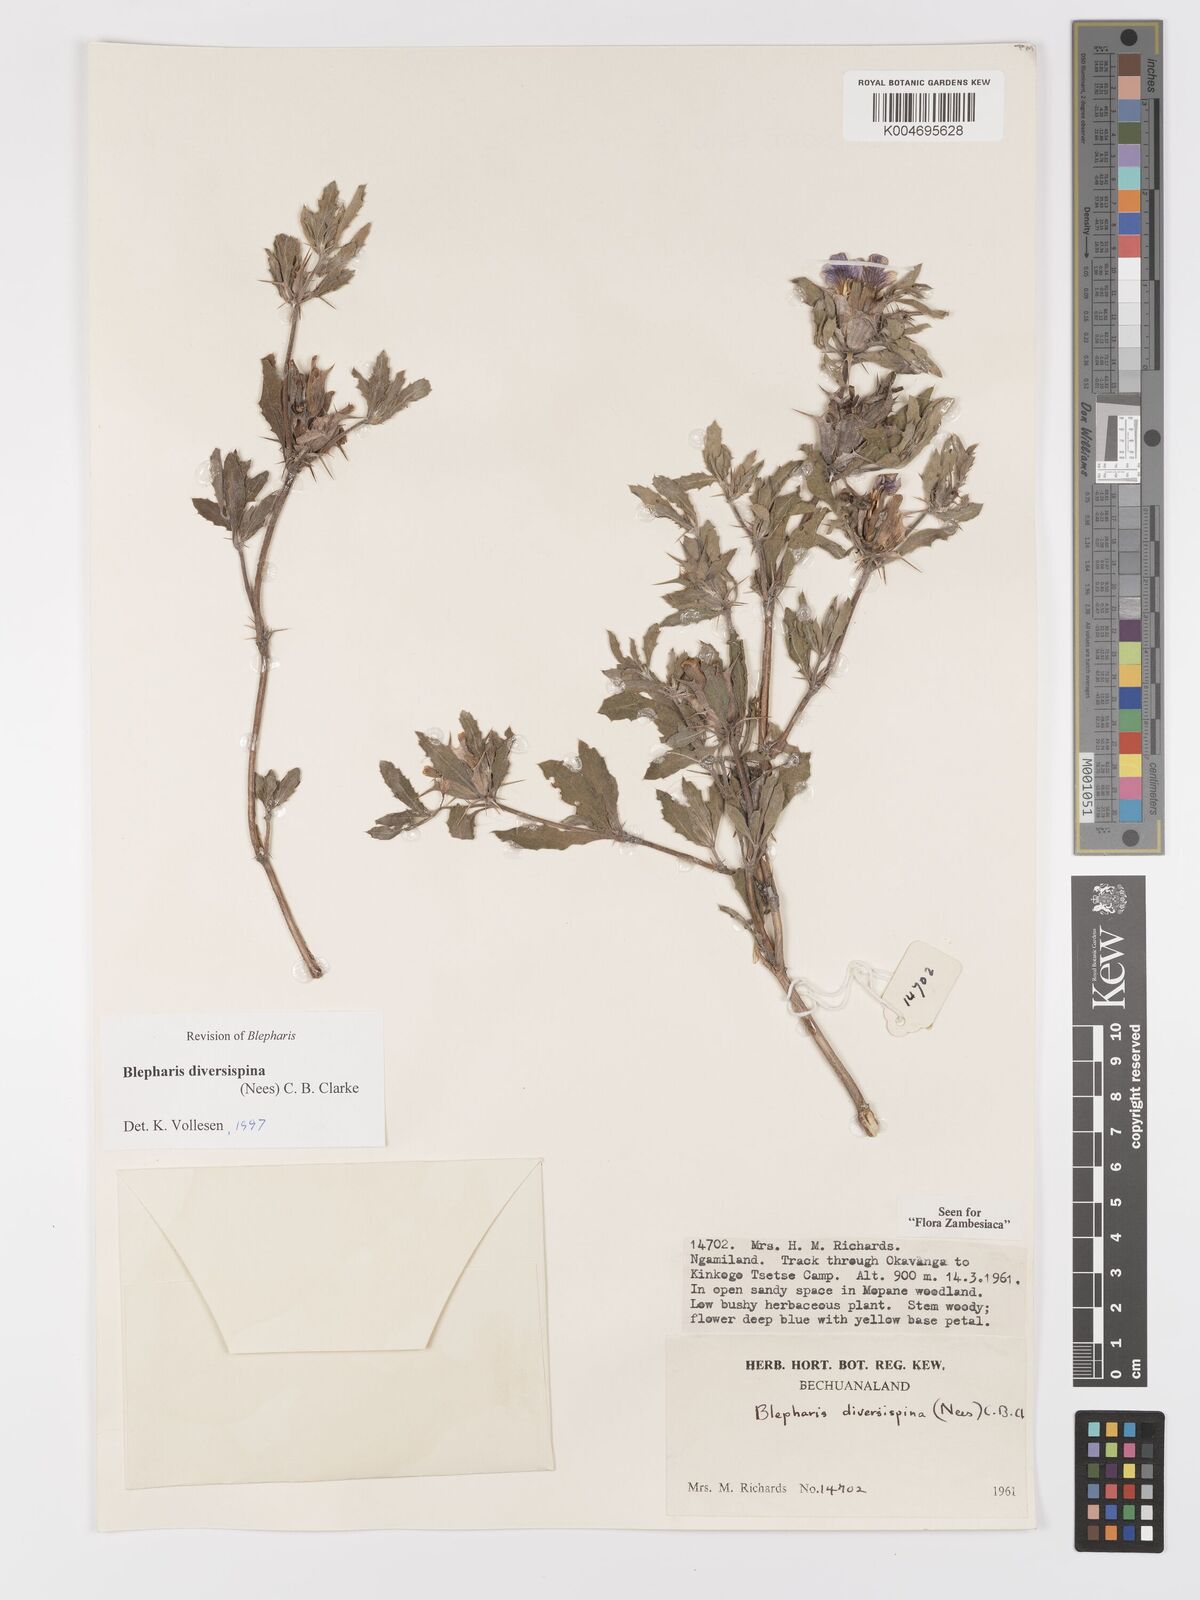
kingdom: Plantae
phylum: Tracheophyta
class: Magnoliopsida
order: Lamiales
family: Acanthaceae
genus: Blepharis
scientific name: Blepharis diversispina
